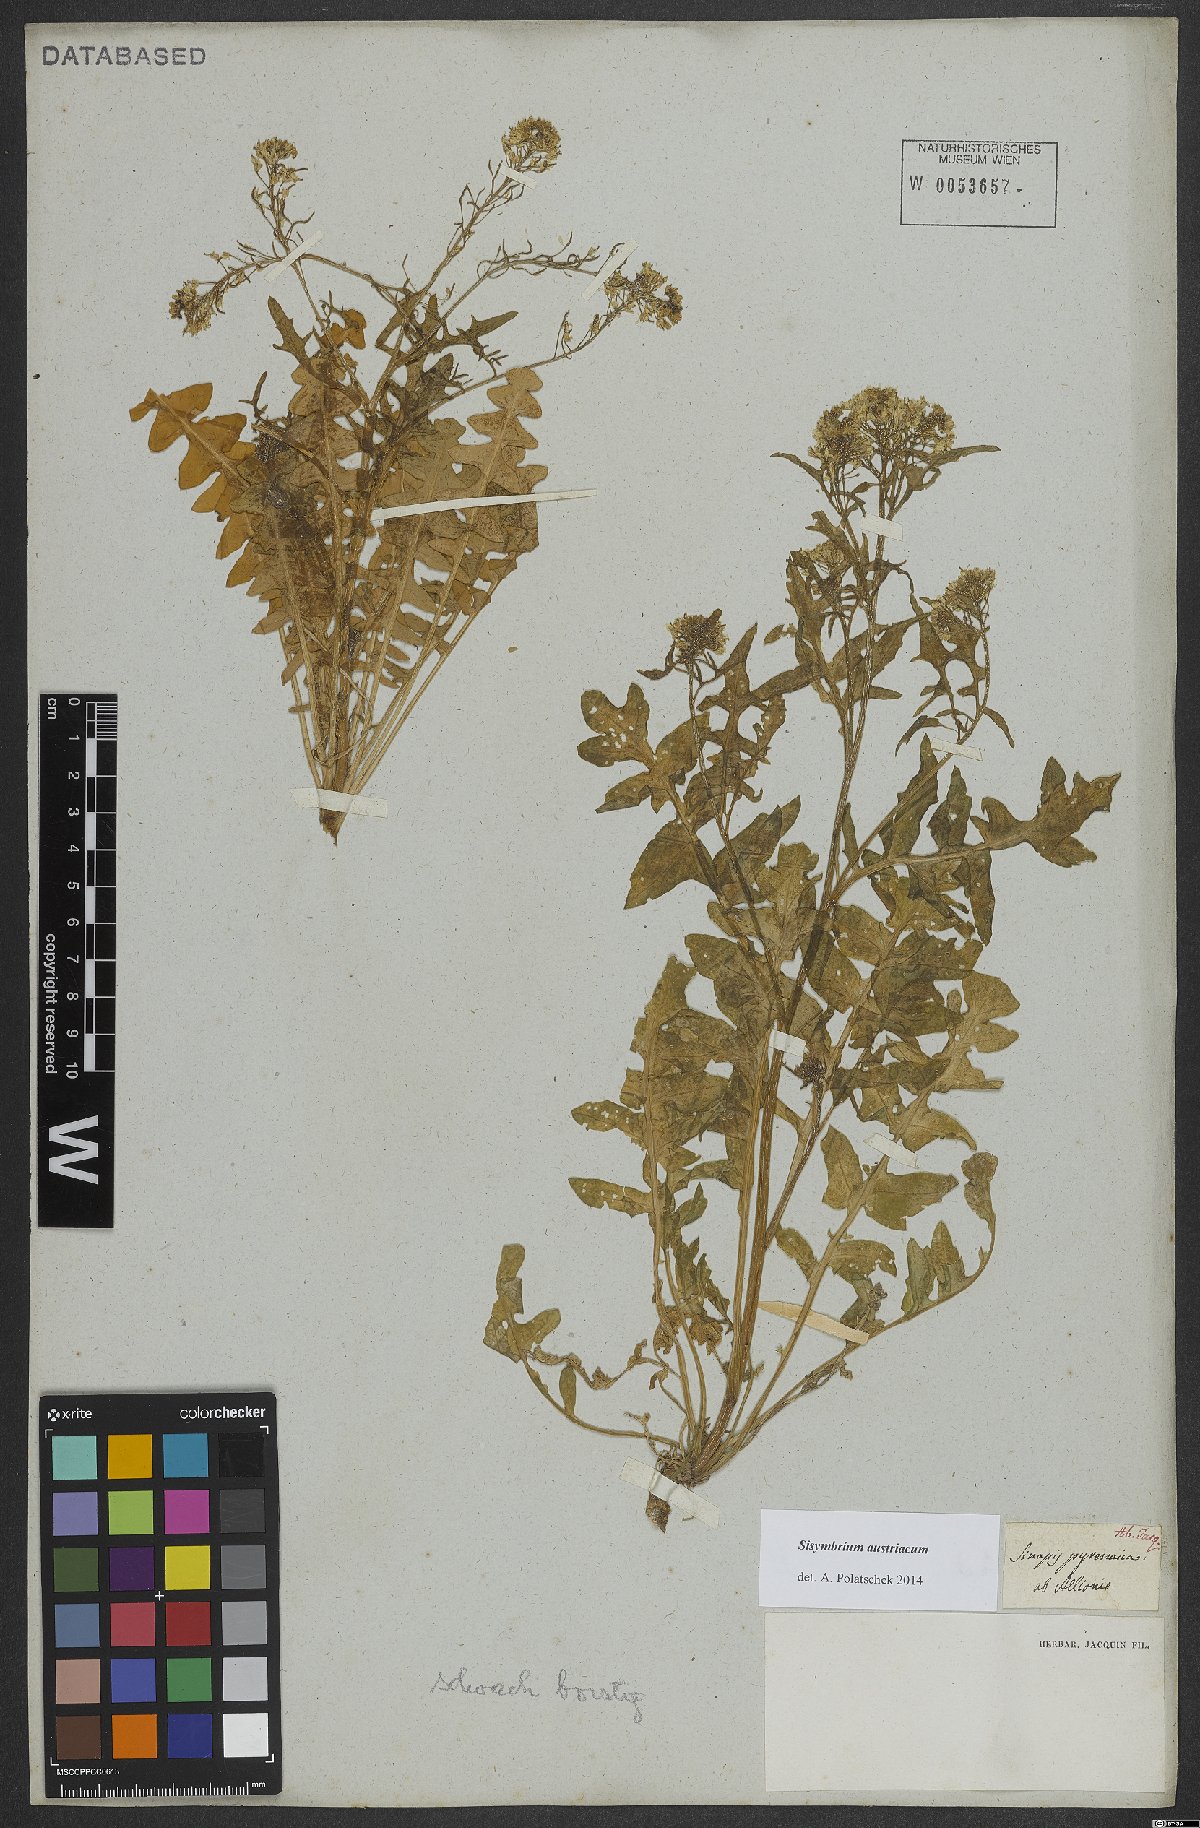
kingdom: Plantae
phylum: Tracheophyta
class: Magnoliopsida
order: Brassicales
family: Brassicaceae
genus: Sisymbrium
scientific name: Sisymbrium austriacum
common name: Jeweled rocket
